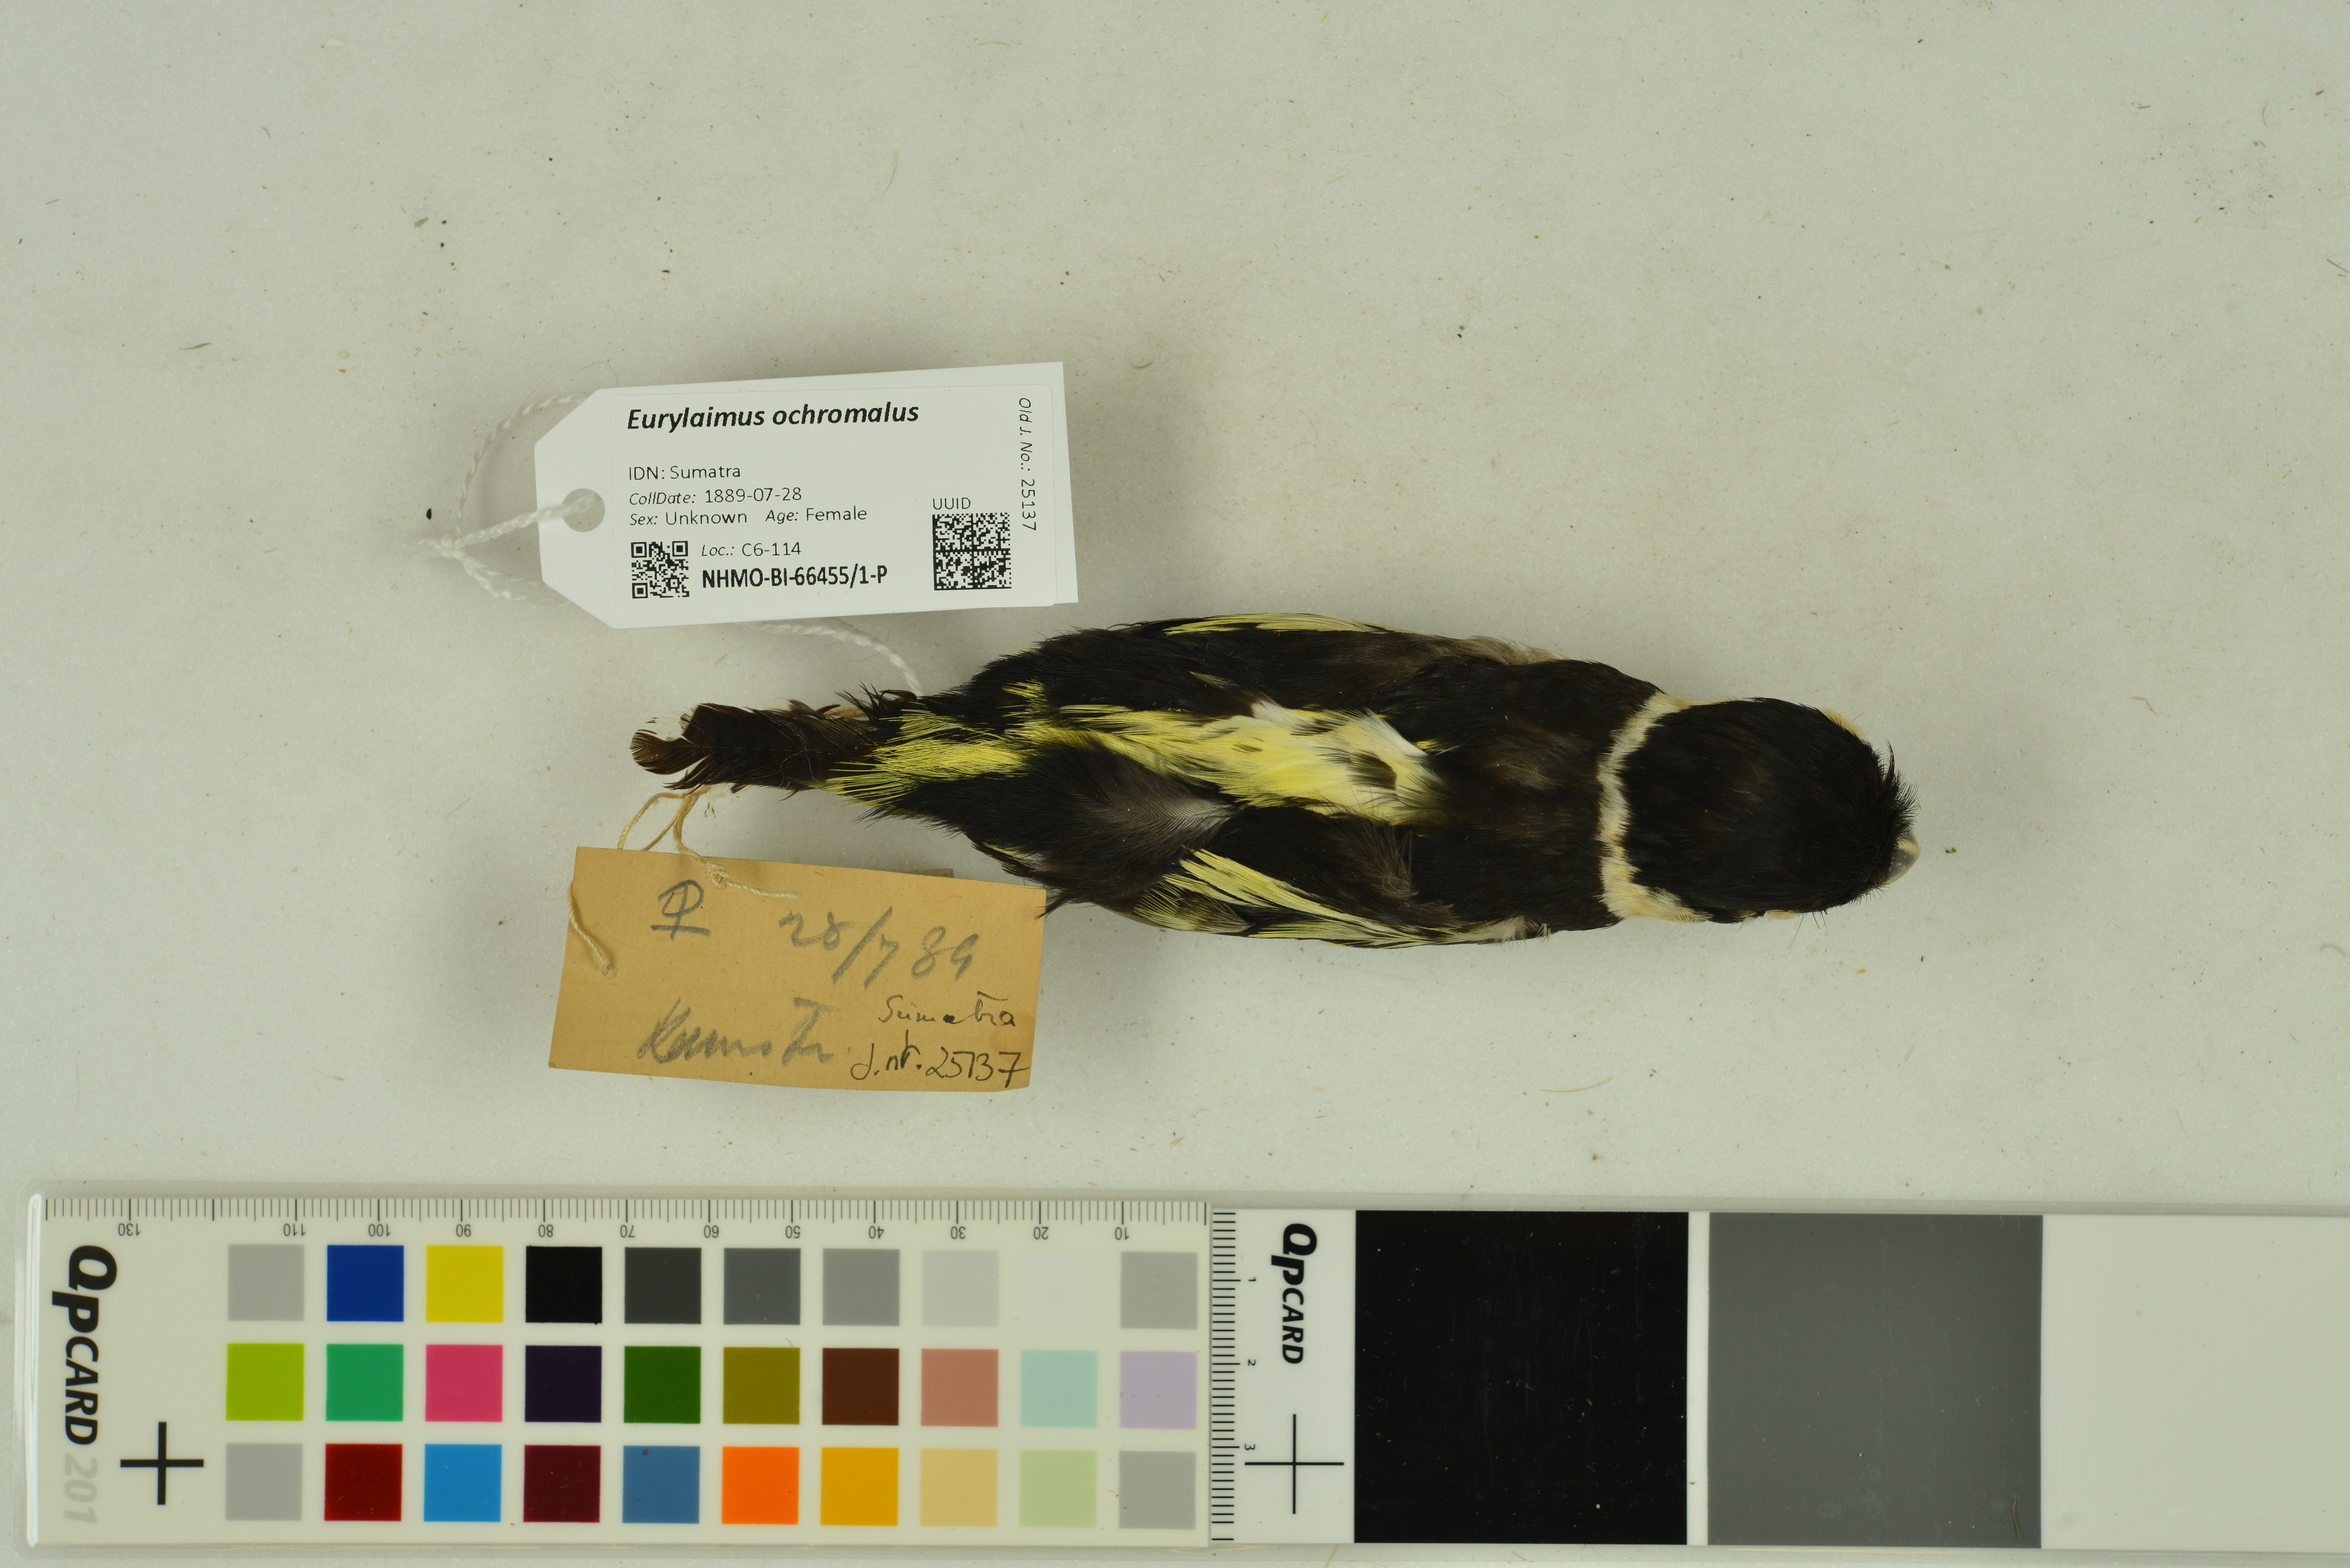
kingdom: Animalia
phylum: Chordata
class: Aves
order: Passeriformes
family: Eurylaimidae
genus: Eurylaimus
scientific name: Eurylaimus ochromalus
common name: Black-and-yellow broadbill
